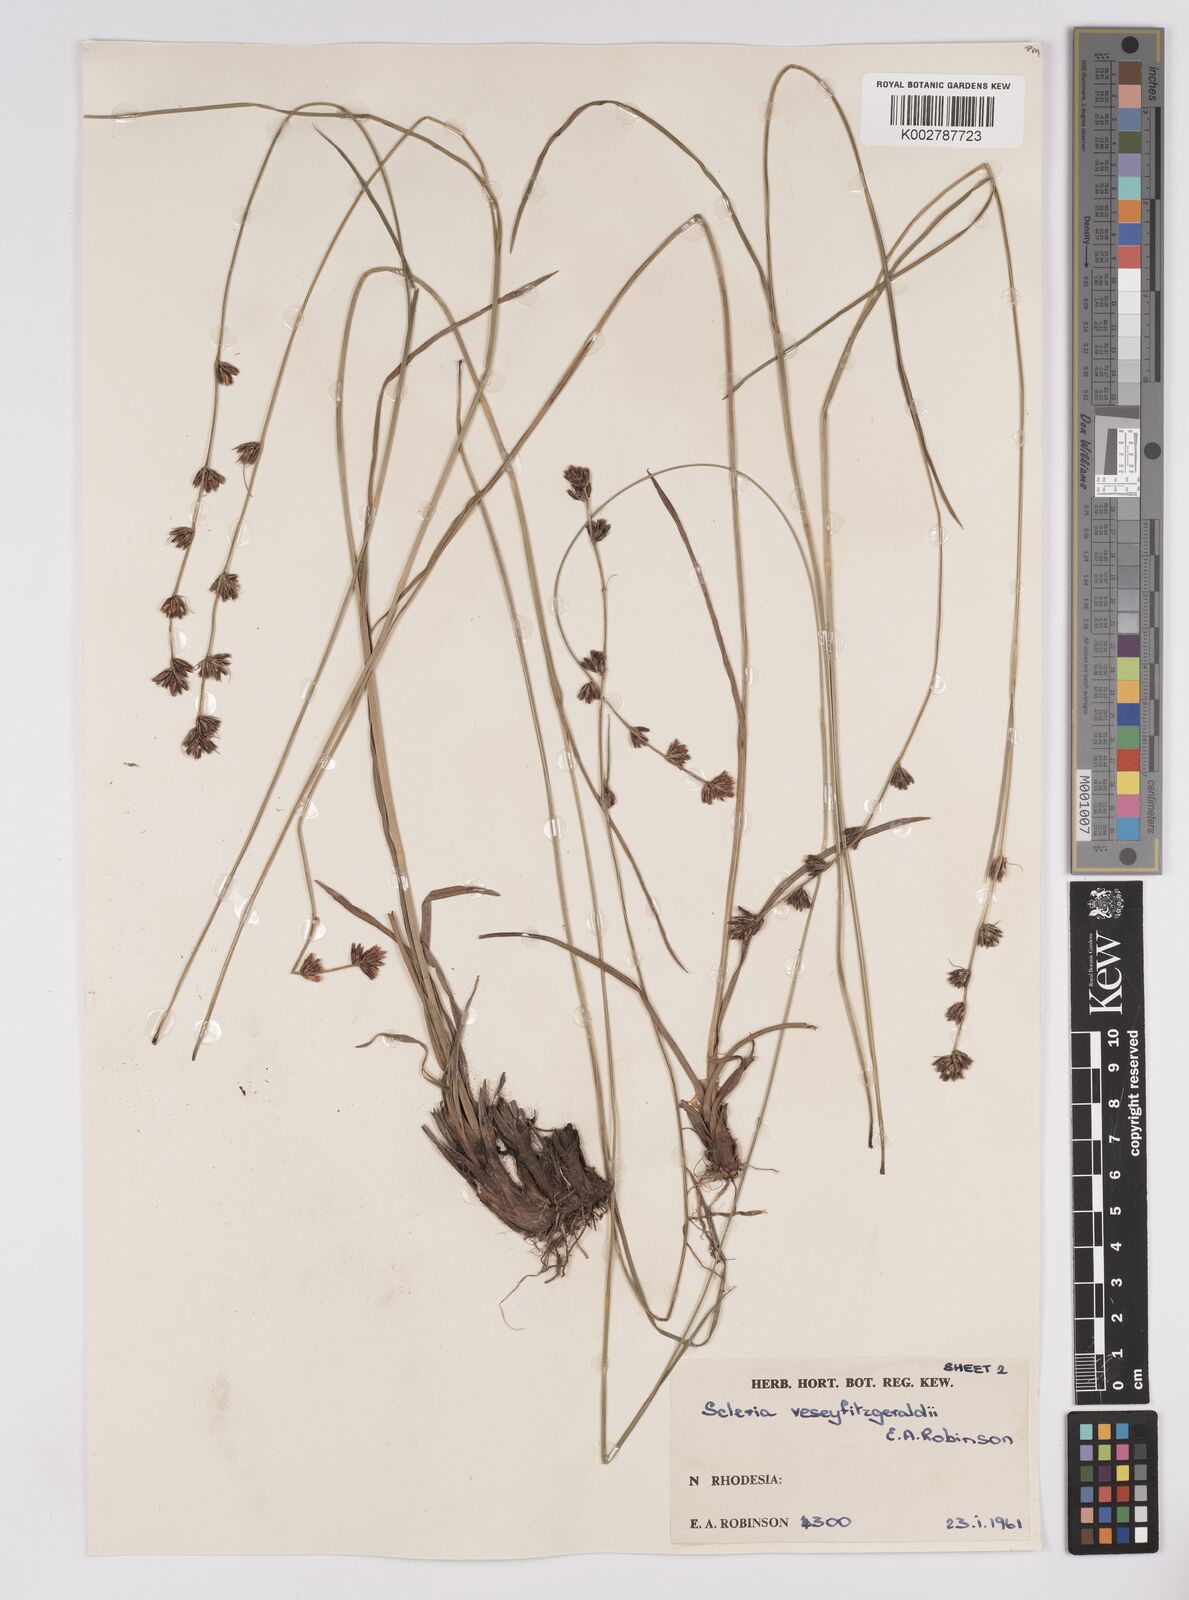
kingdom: Plantae
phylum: Tracheophyta
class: Liliopsida
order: Poales
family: Cyperaceae
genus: Scleria
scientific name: Scleria veseyfitzgeraldii
